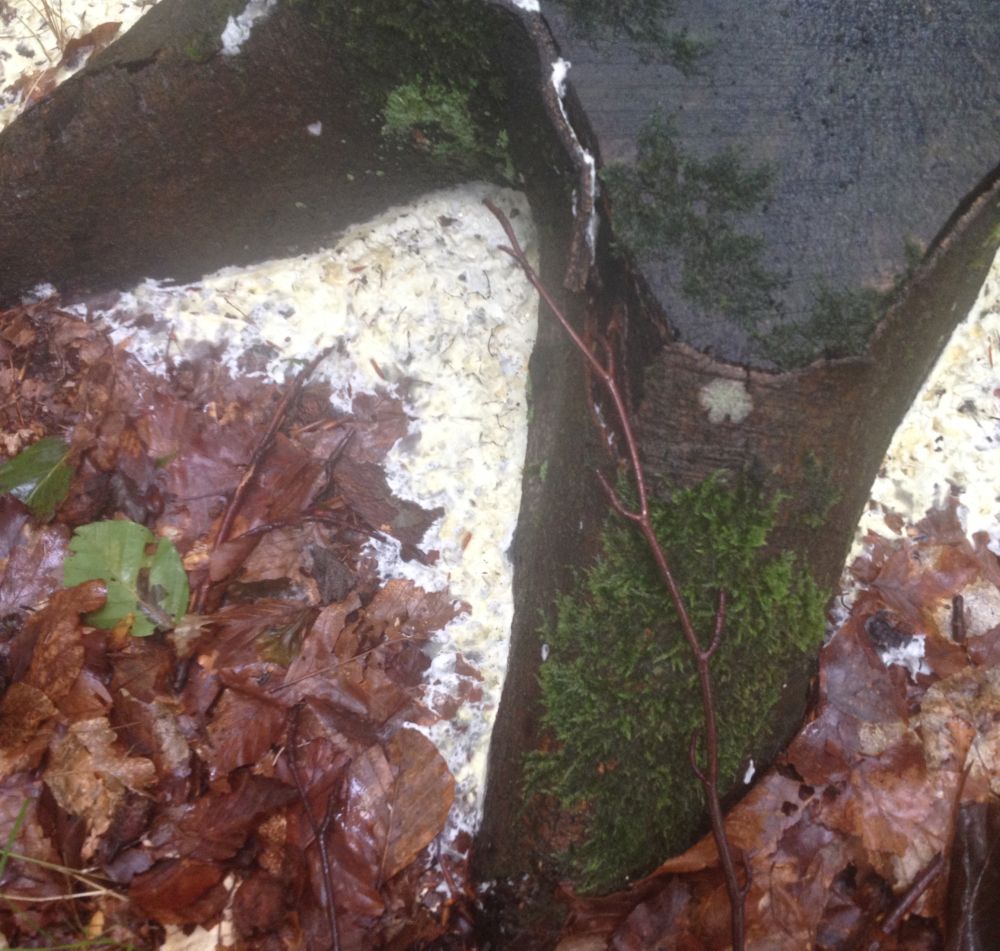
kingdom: Fungi
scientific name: Fungi
